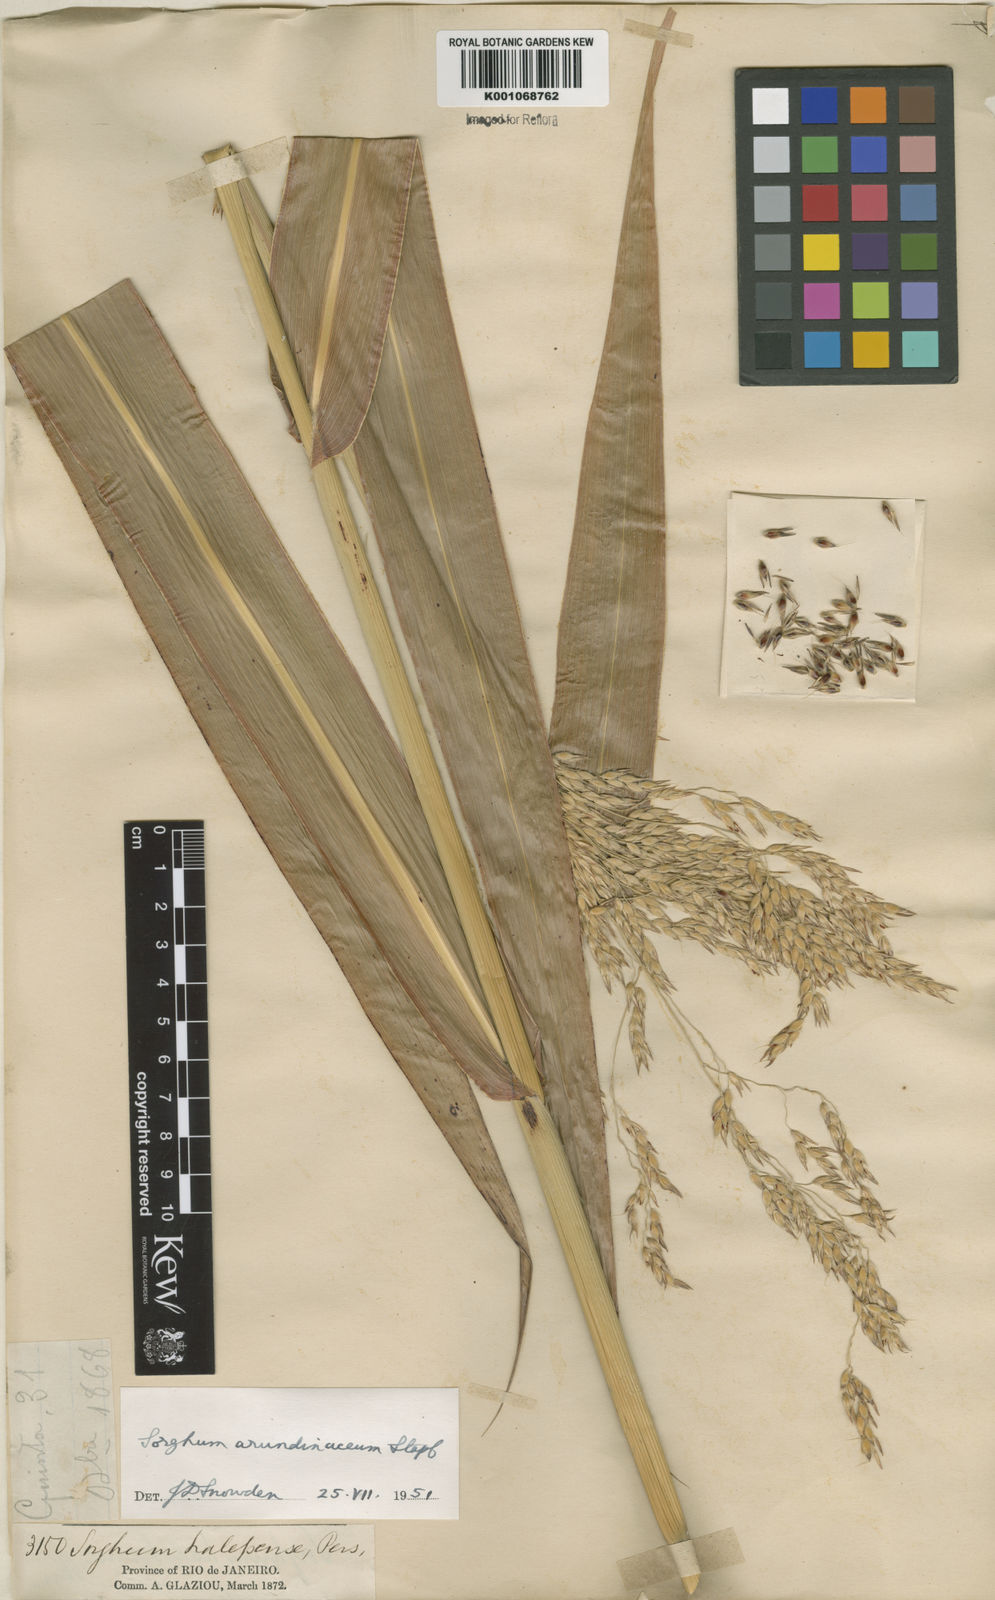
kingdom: Plantae
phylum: Tracheophyta
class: Liliopsida
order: Poales
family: Poaceae
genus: Sorghum
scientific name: Sorghum arundinaceum
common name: Sorghum
